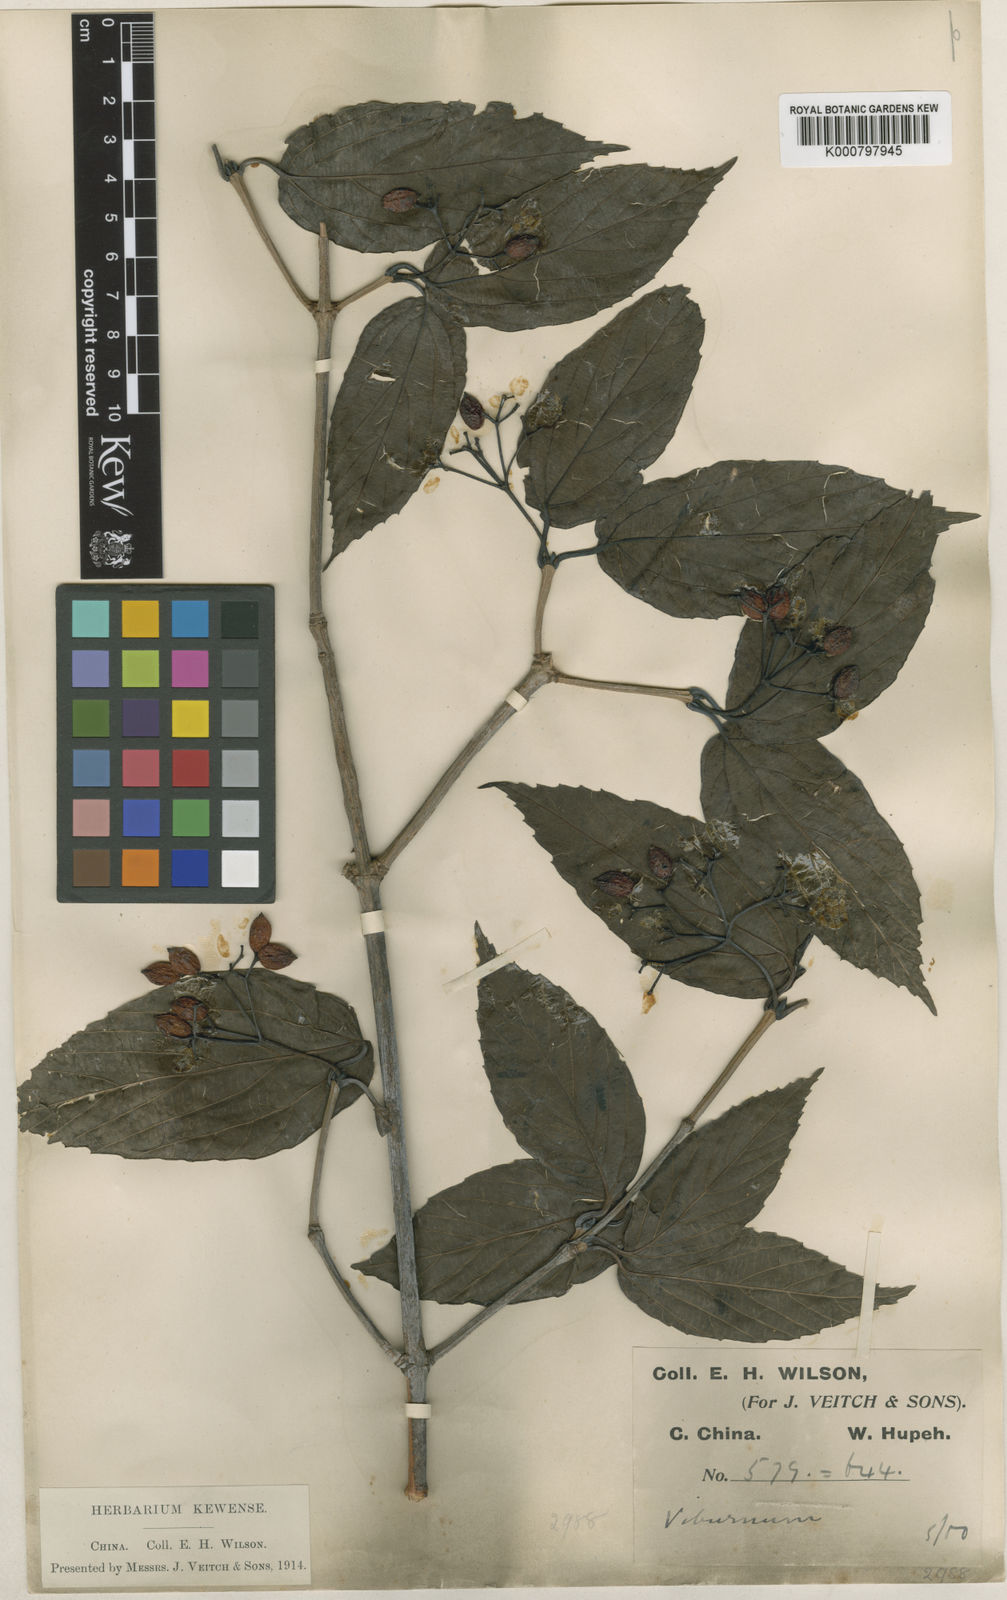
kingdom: Plantae
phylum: Tracheophyta
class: Magnoliopsida
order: Dipsacales
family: Viburnaceae
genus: Viburnum
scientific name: Viburnum setigerum
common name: Tea viburnum
